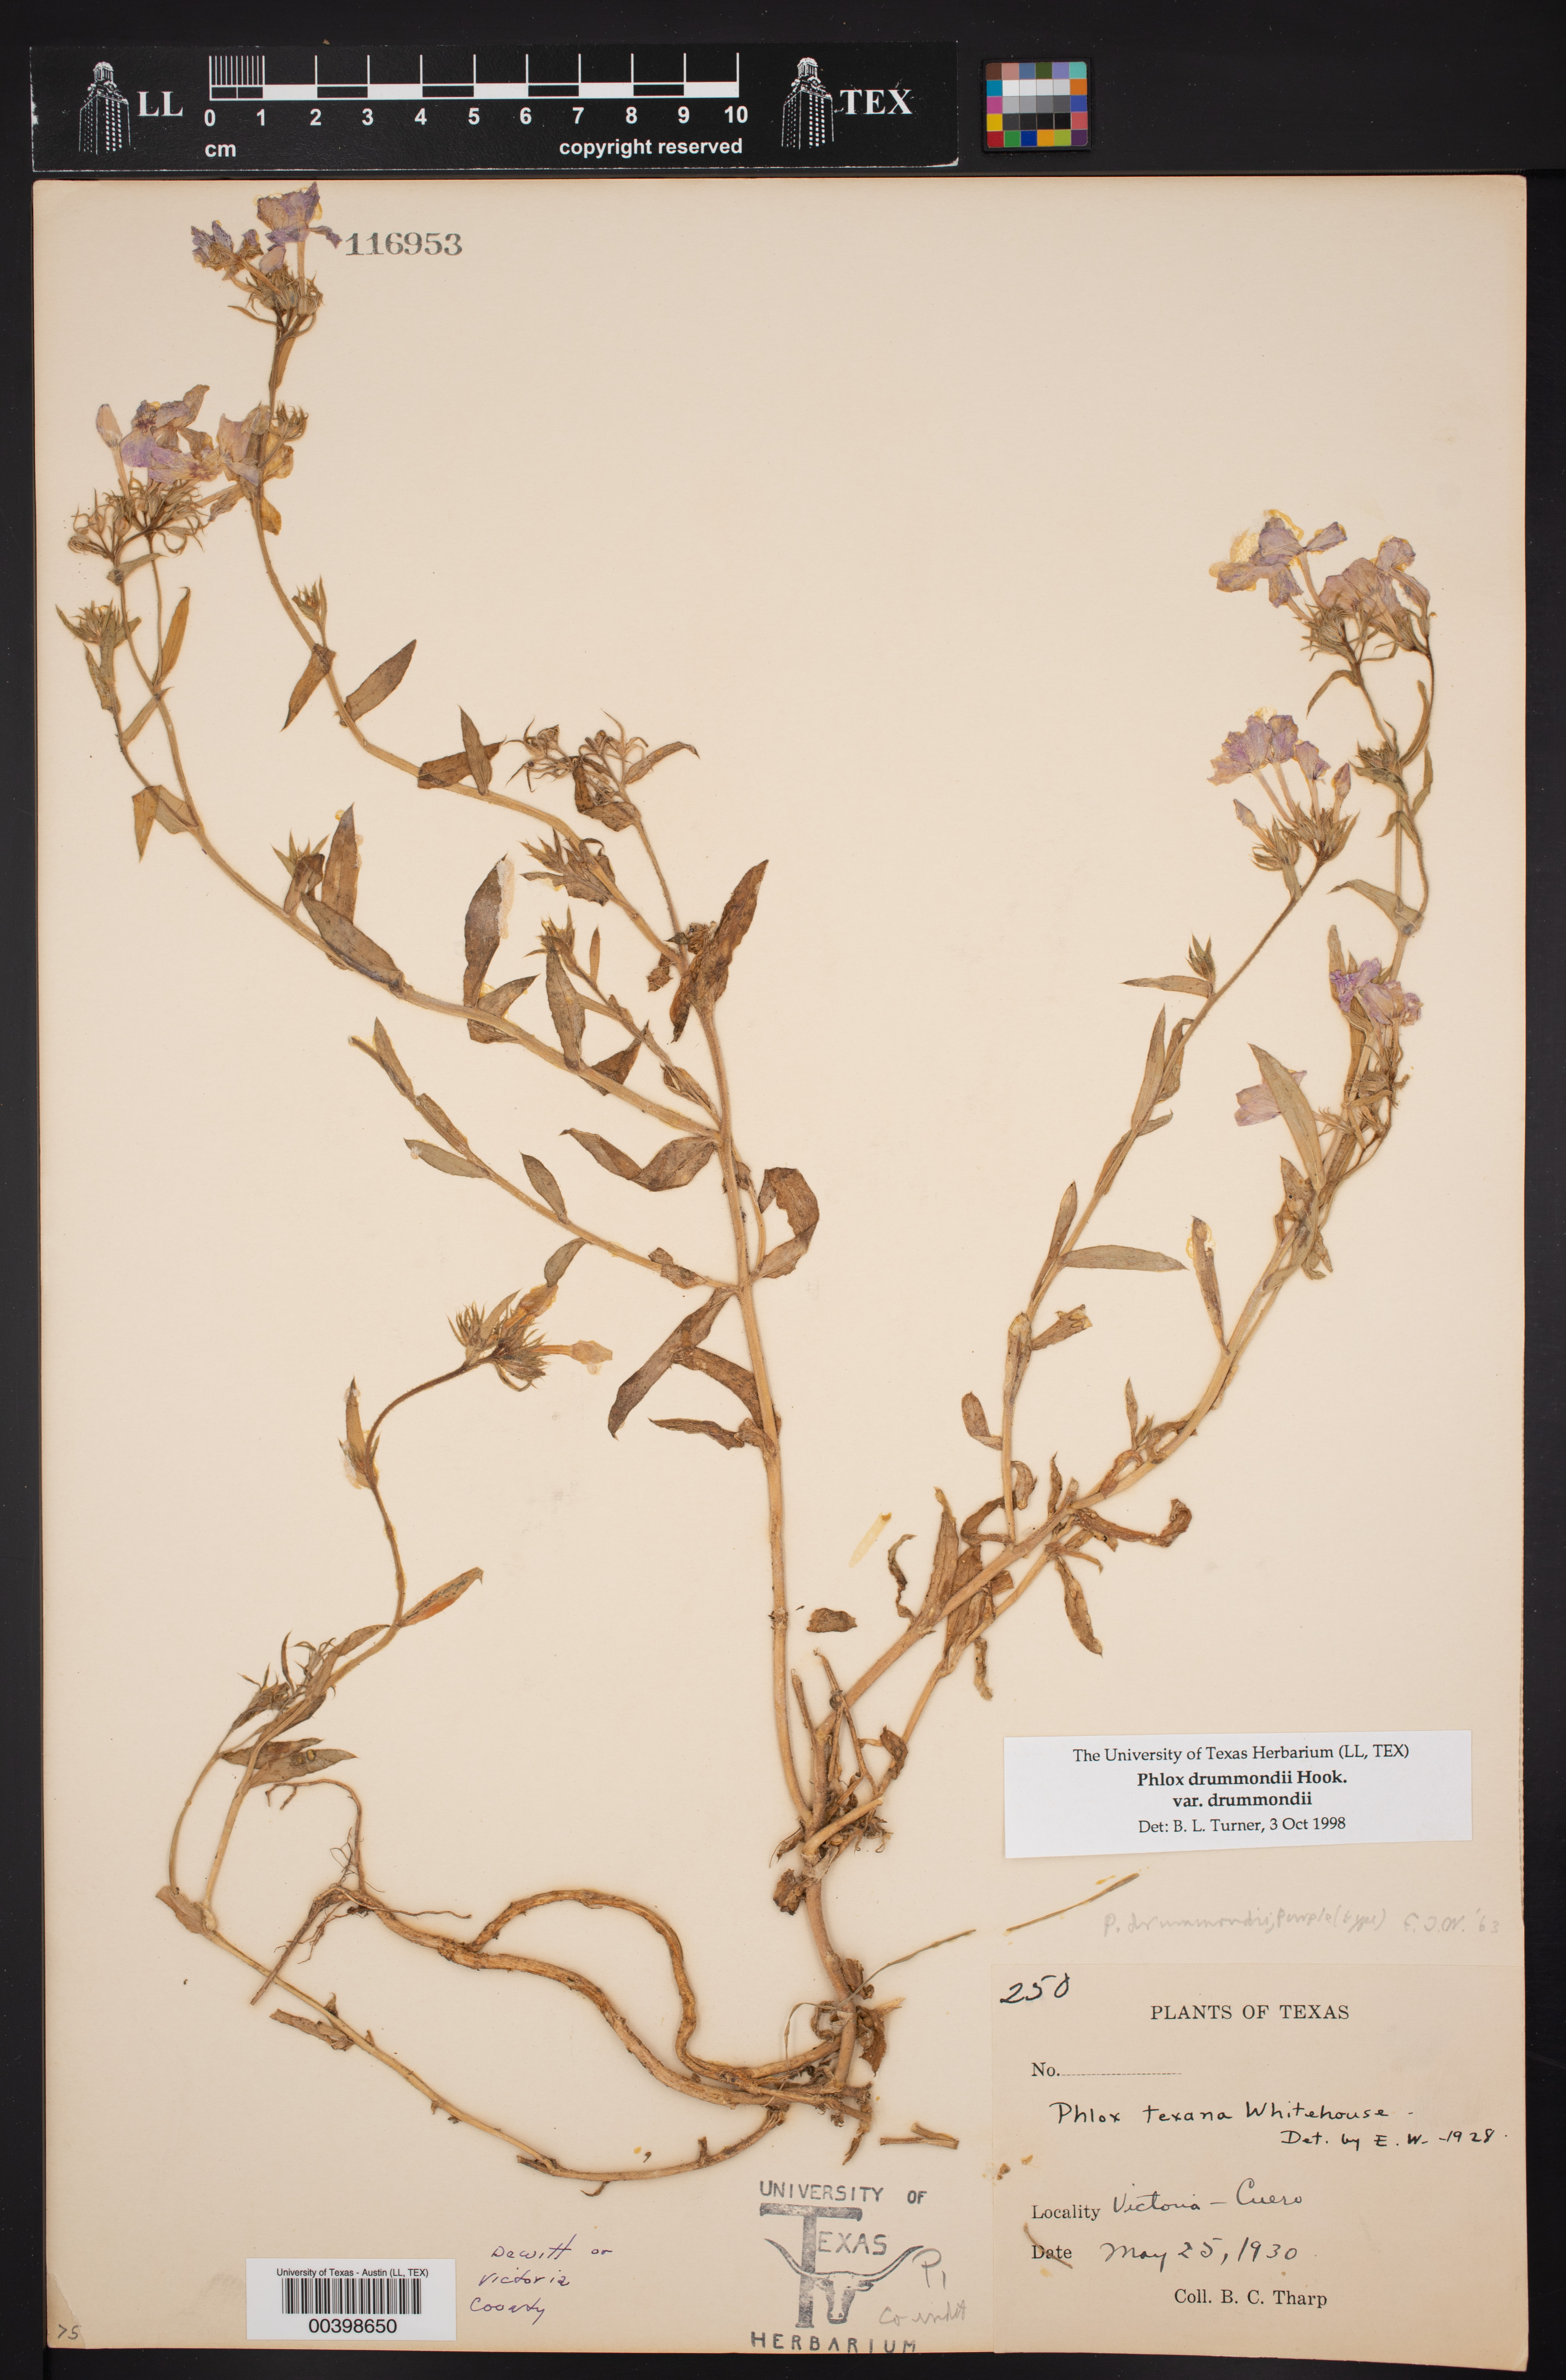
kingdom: Plantae
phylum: Tracheophyta
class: Magnoliopsida
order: Ericales
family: Polemoniaceae
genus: Phlox
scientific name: Phlox drummondii
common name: Drummond's phlox
